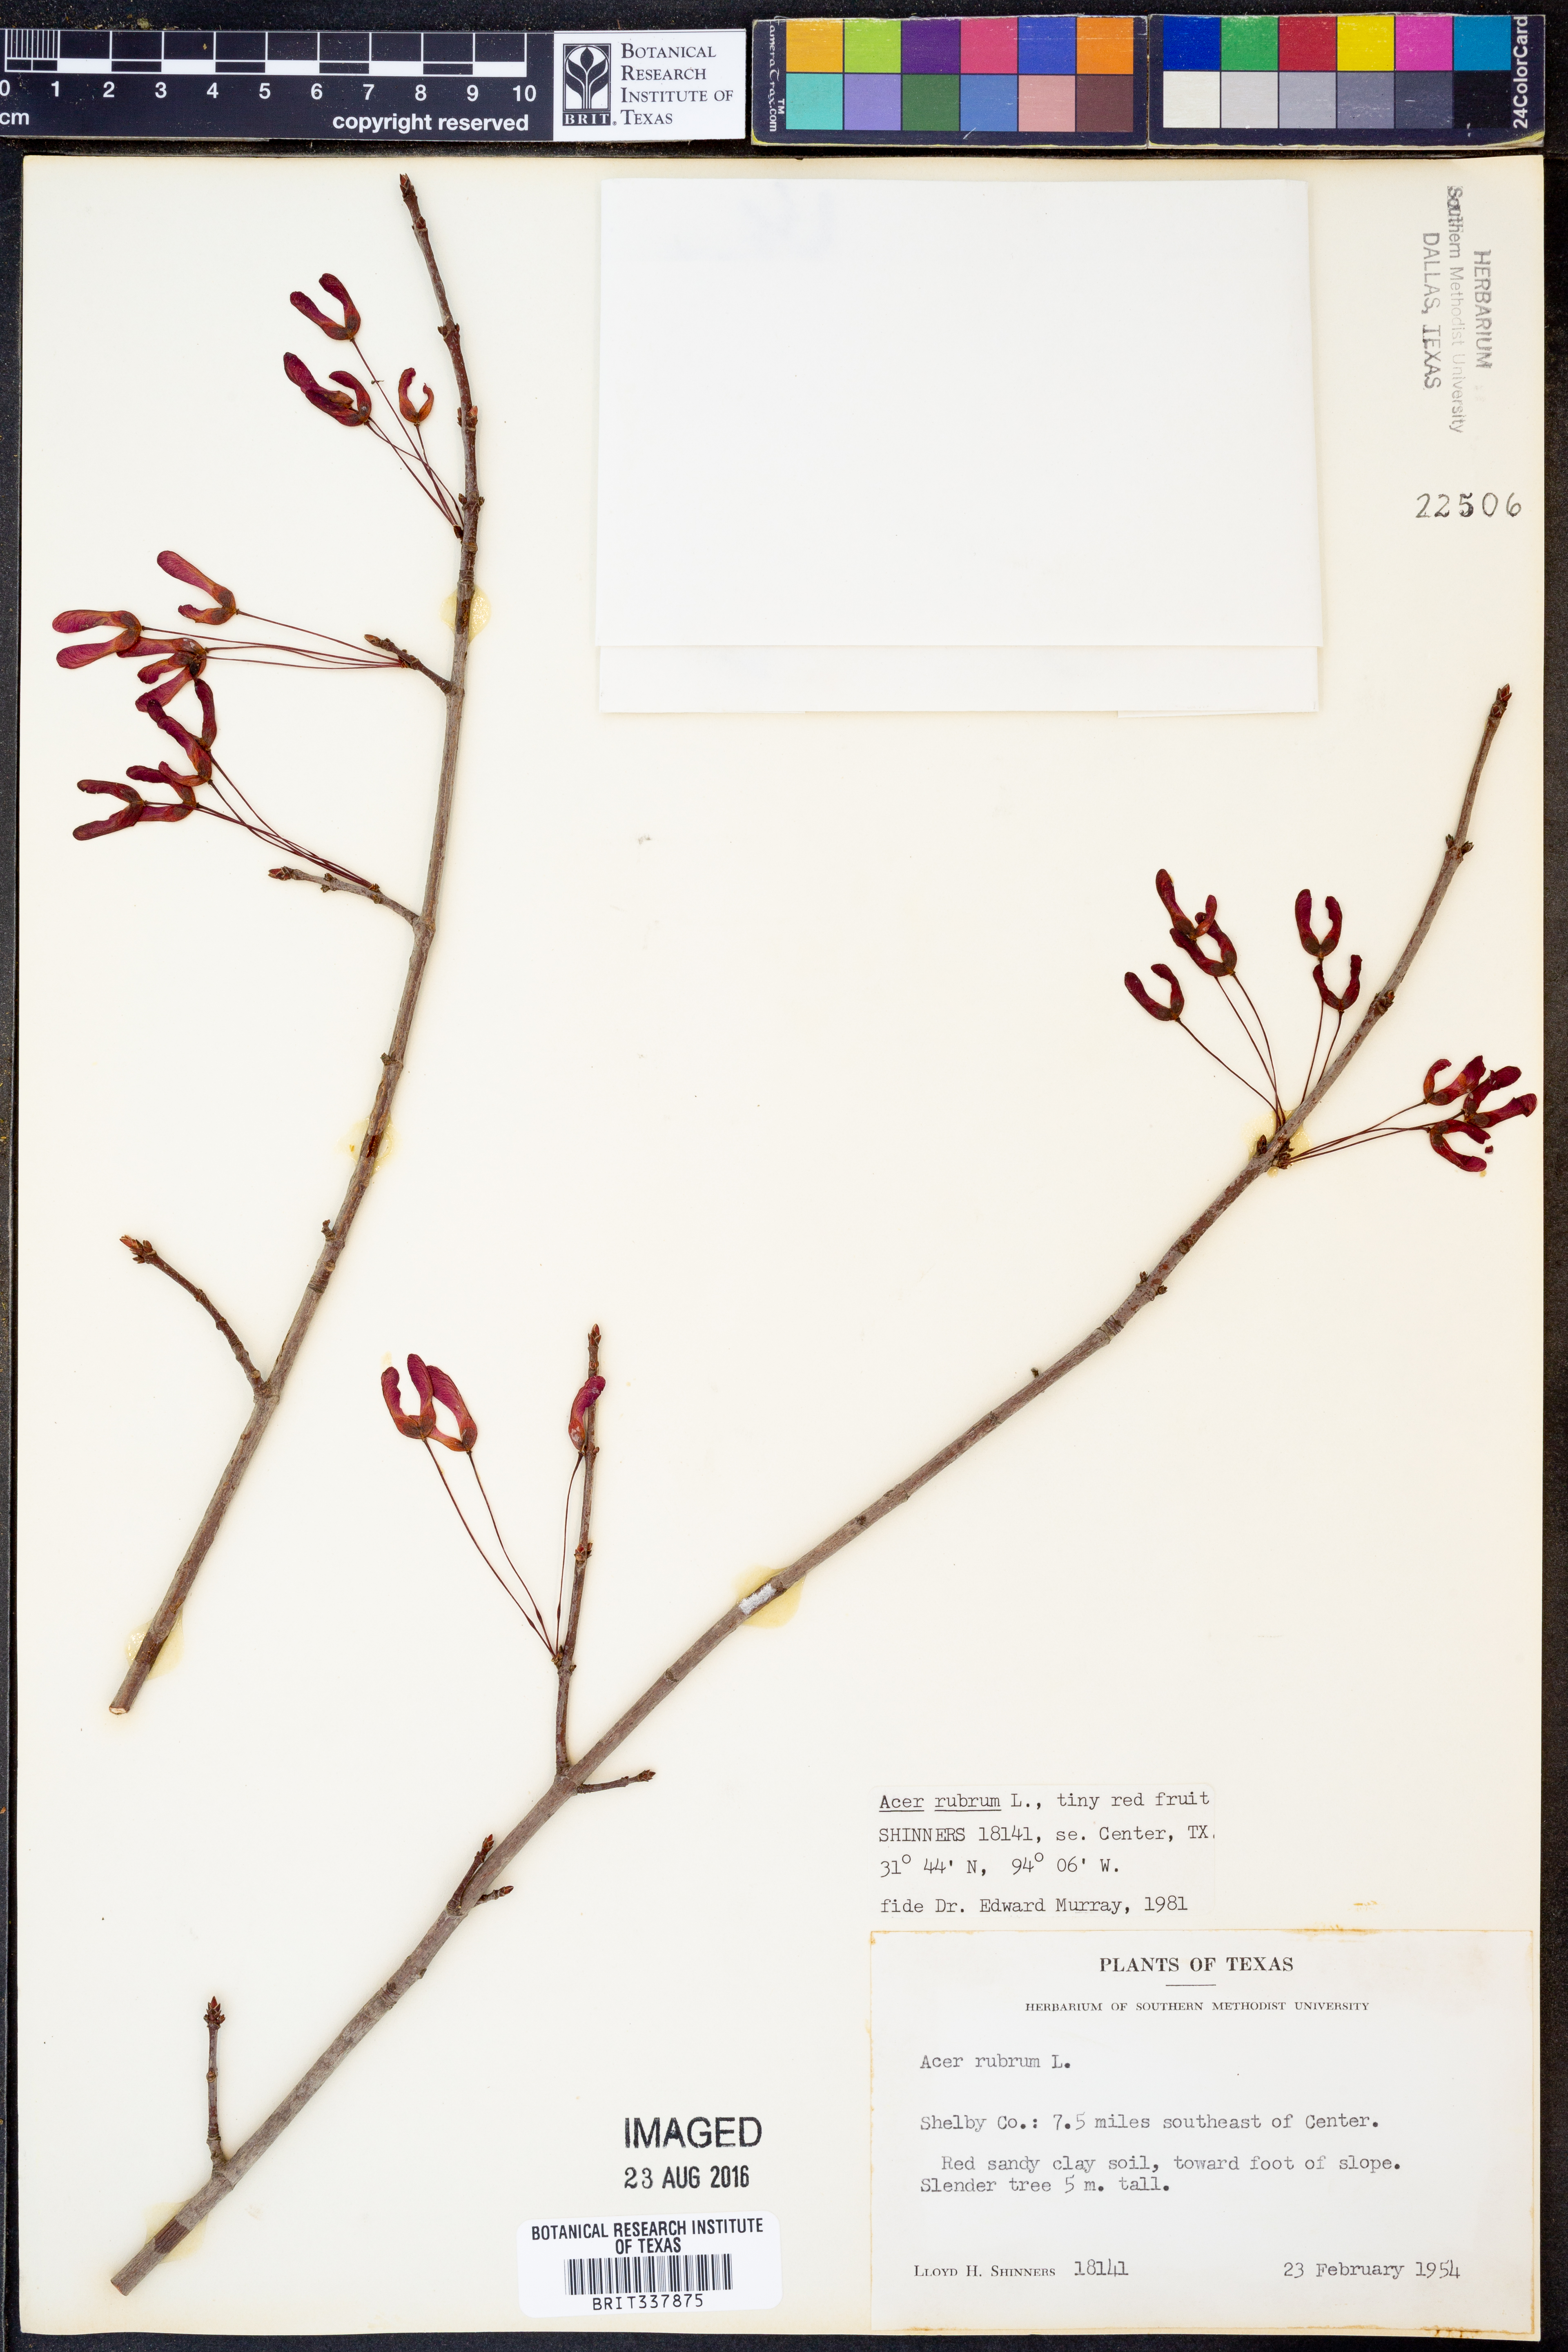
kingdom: Plantae
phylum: Tracheophyta
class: Magnoliopsida
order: Sapindales
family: Sapindaceae
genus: Acer
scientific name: Acer rubrum
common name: Red maple
